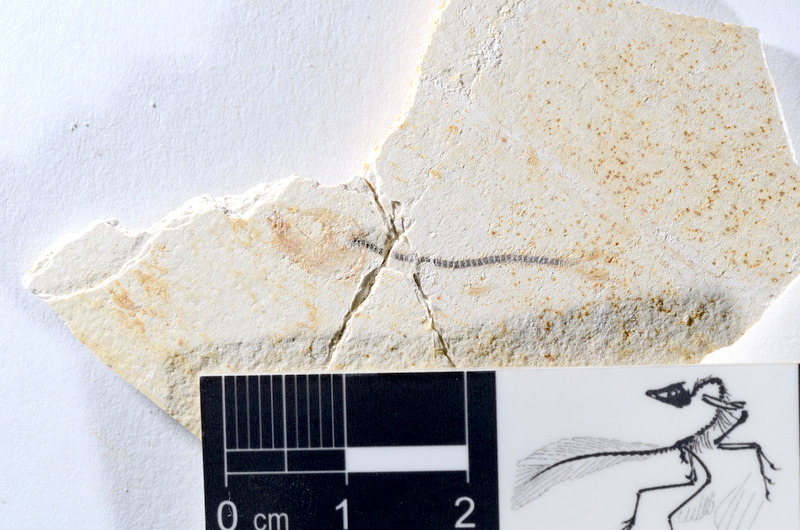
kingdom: Animalia
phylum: Chordata
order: Salmoniformes
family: Orthogonikleithridae
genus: Orthogonikleithrus
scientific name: Orthogonikleithrus hoelli
